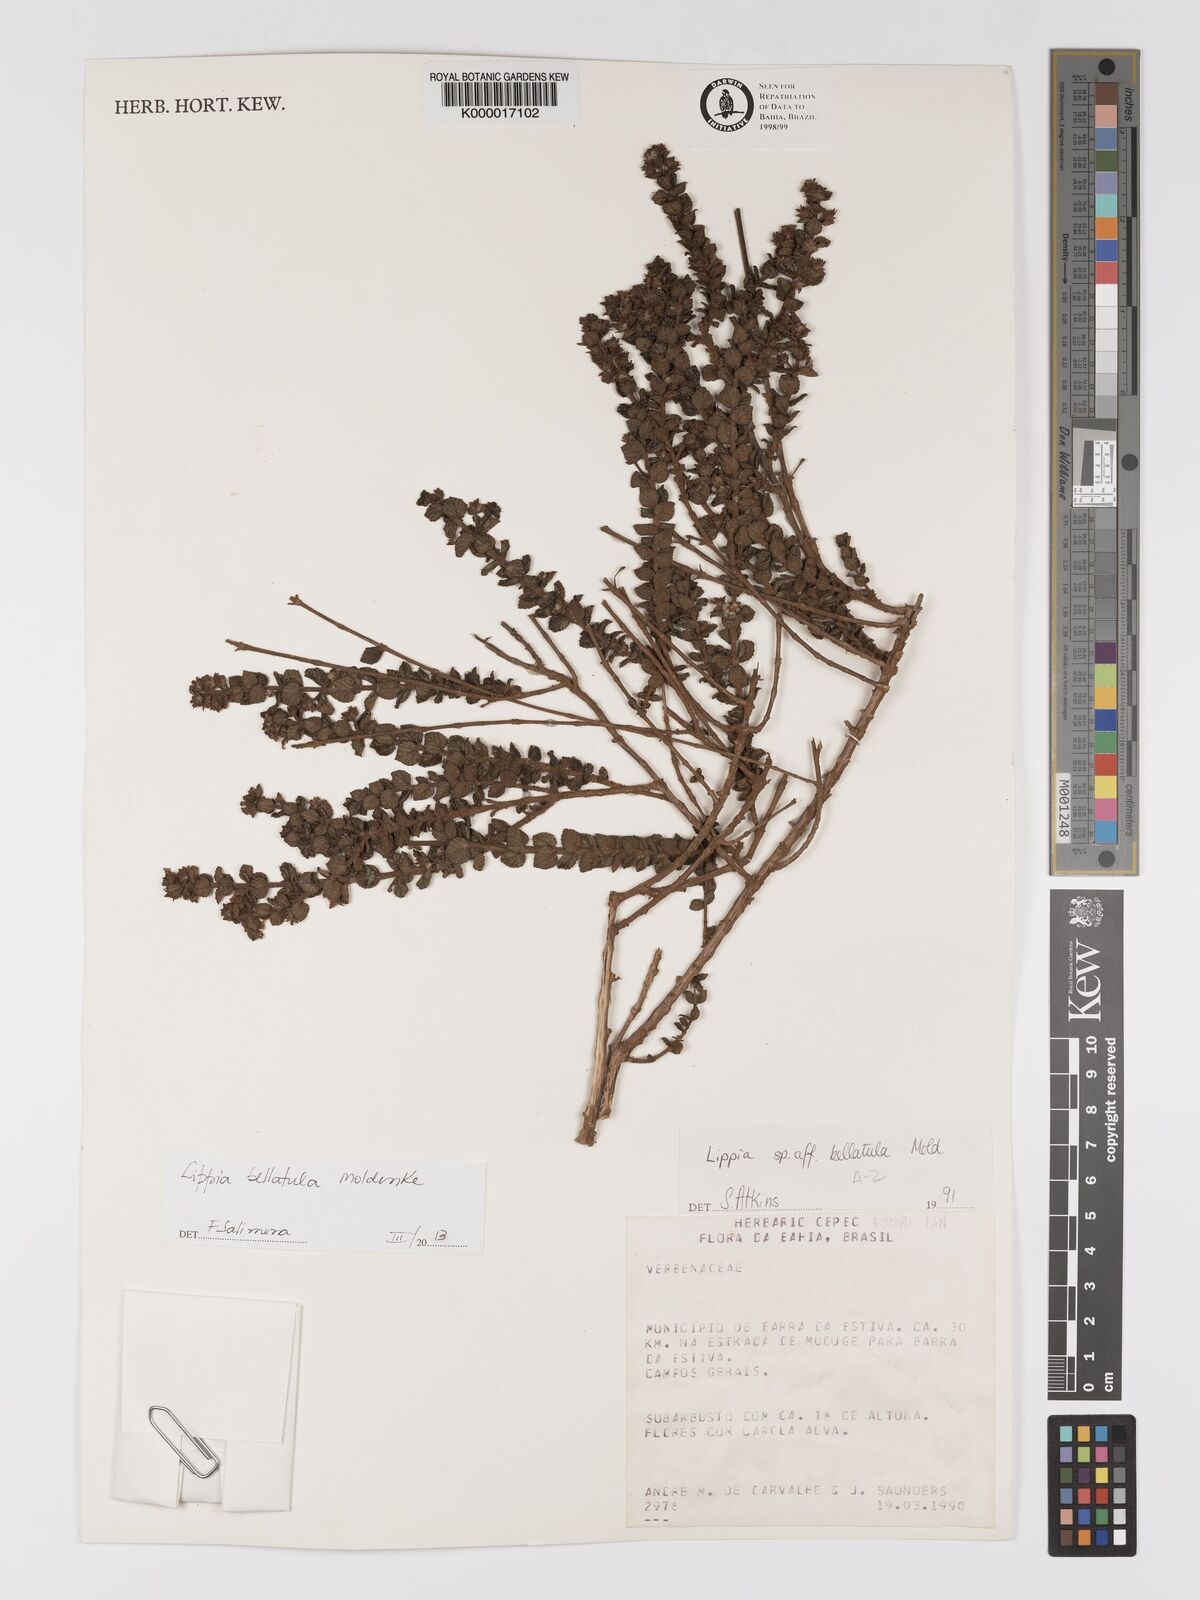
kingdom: Plantae
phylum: Tracheophyta
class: Magnoliopsida
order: Lamiales
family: Verbenaceae
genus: Lippia
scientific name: Lippia bellatula
